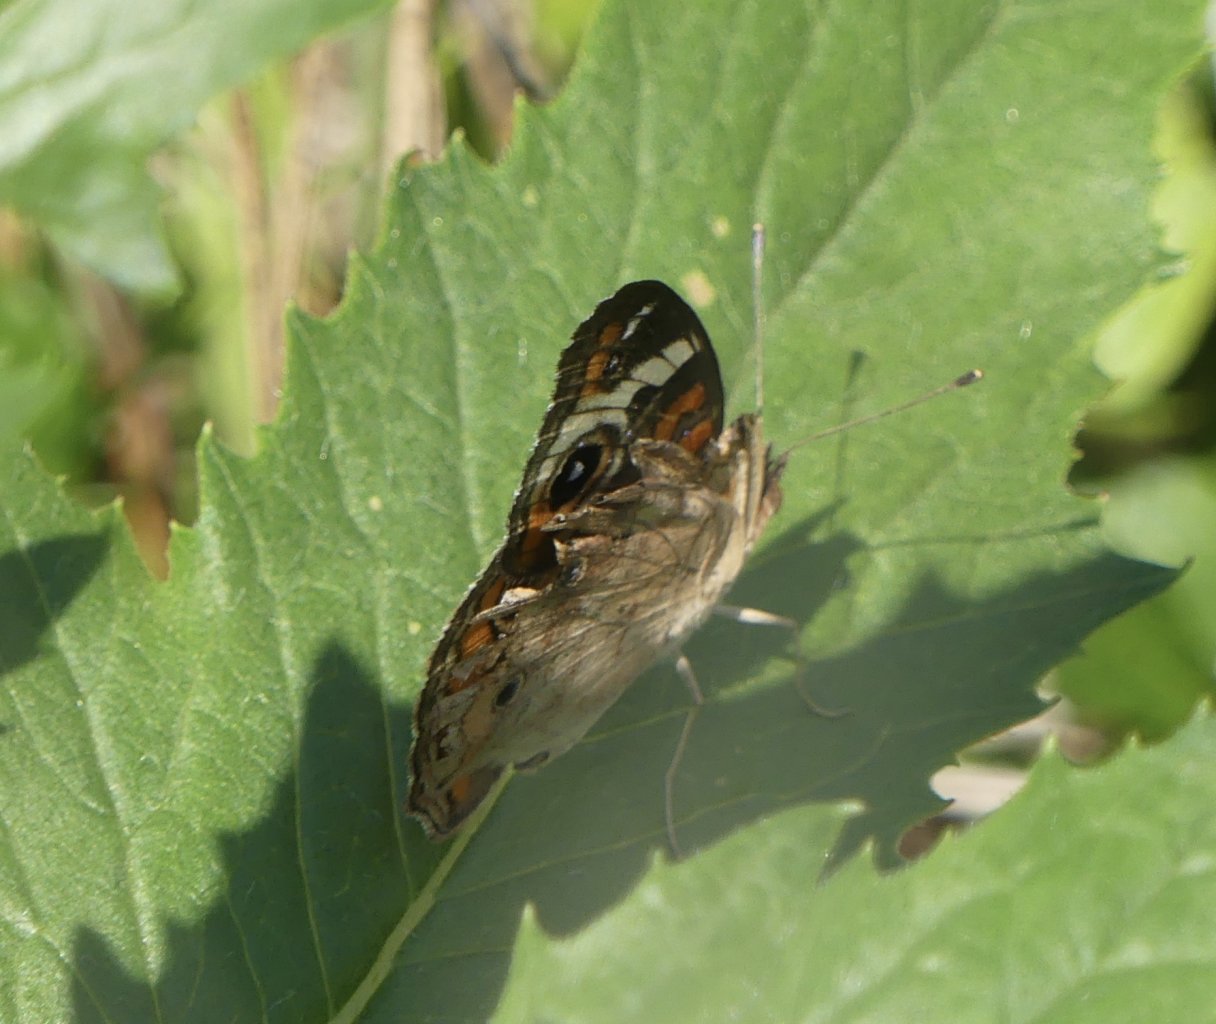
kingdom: Animalia
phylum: Arthropoda
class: Insecta
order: Lepidoptera
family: Nymphalidae
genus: Junonia
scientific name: Junonia coenia
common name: Common Buckeye
